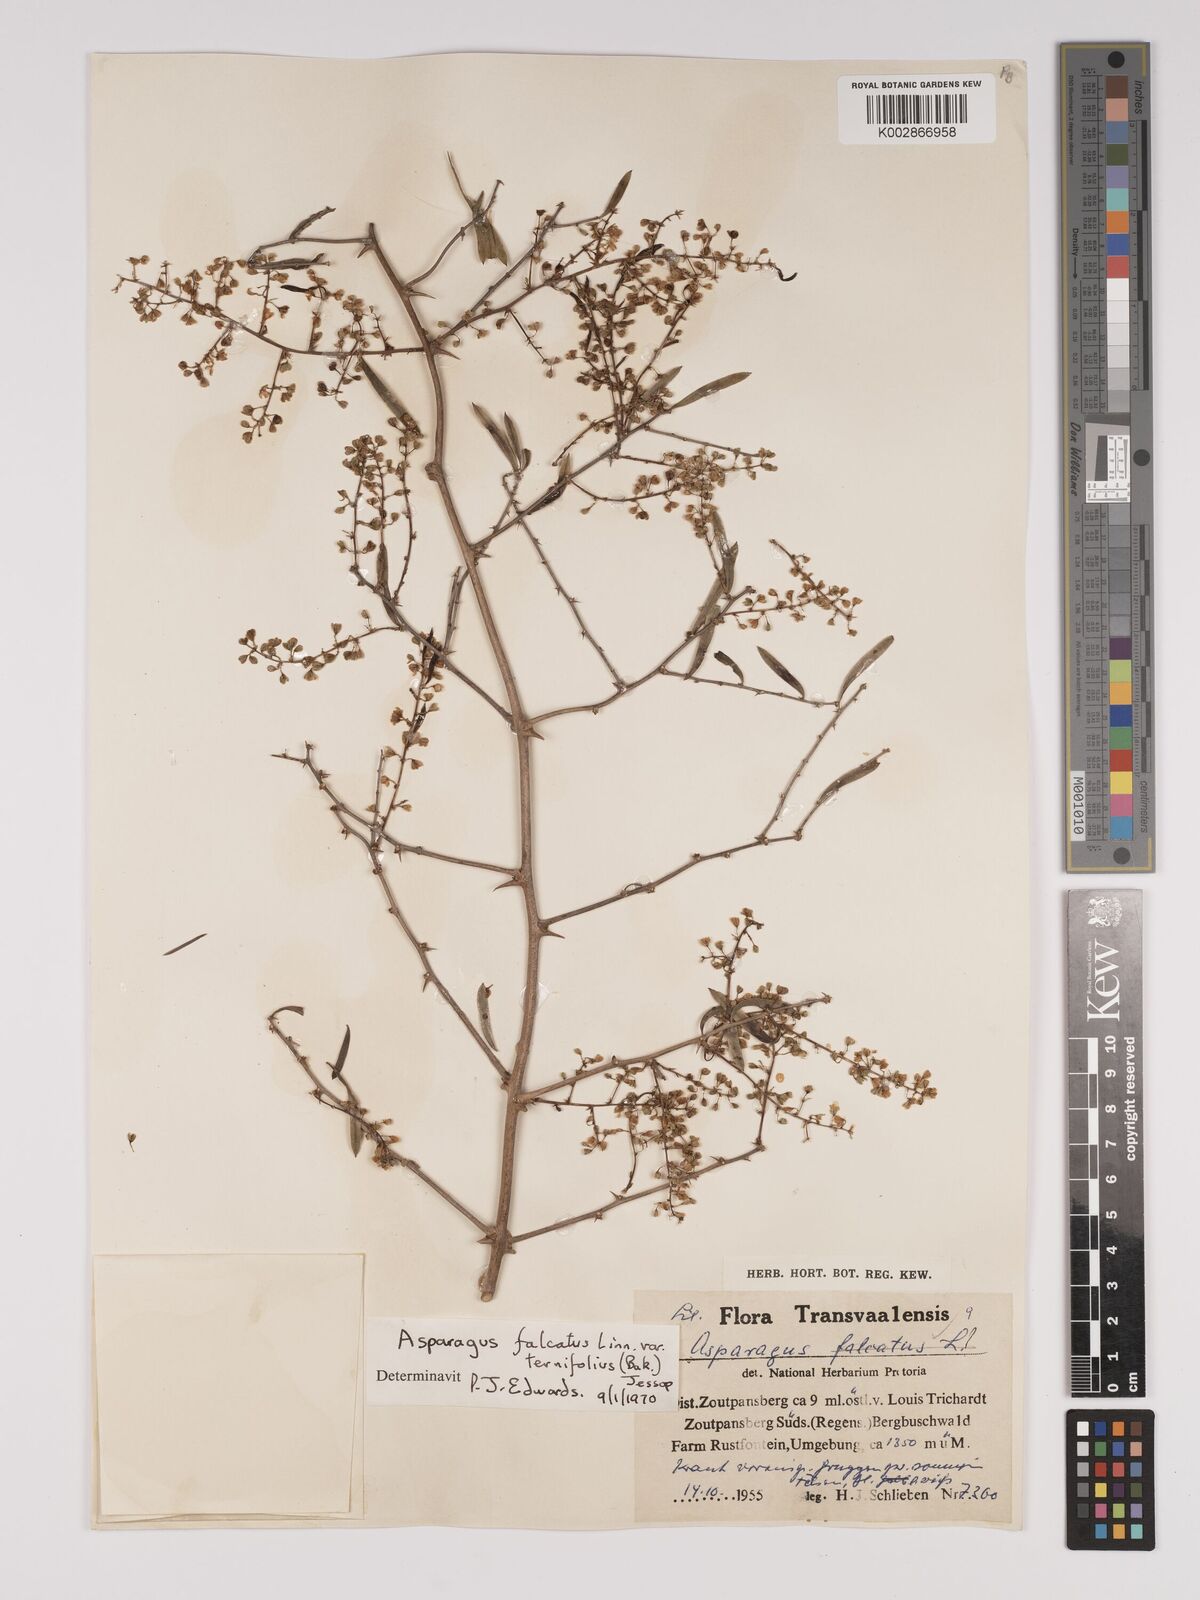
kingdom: Plantae
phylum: Tracheophyta
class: Liliopsida
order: Asparagales
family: Asparagaceae
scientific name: Asparagaceae
